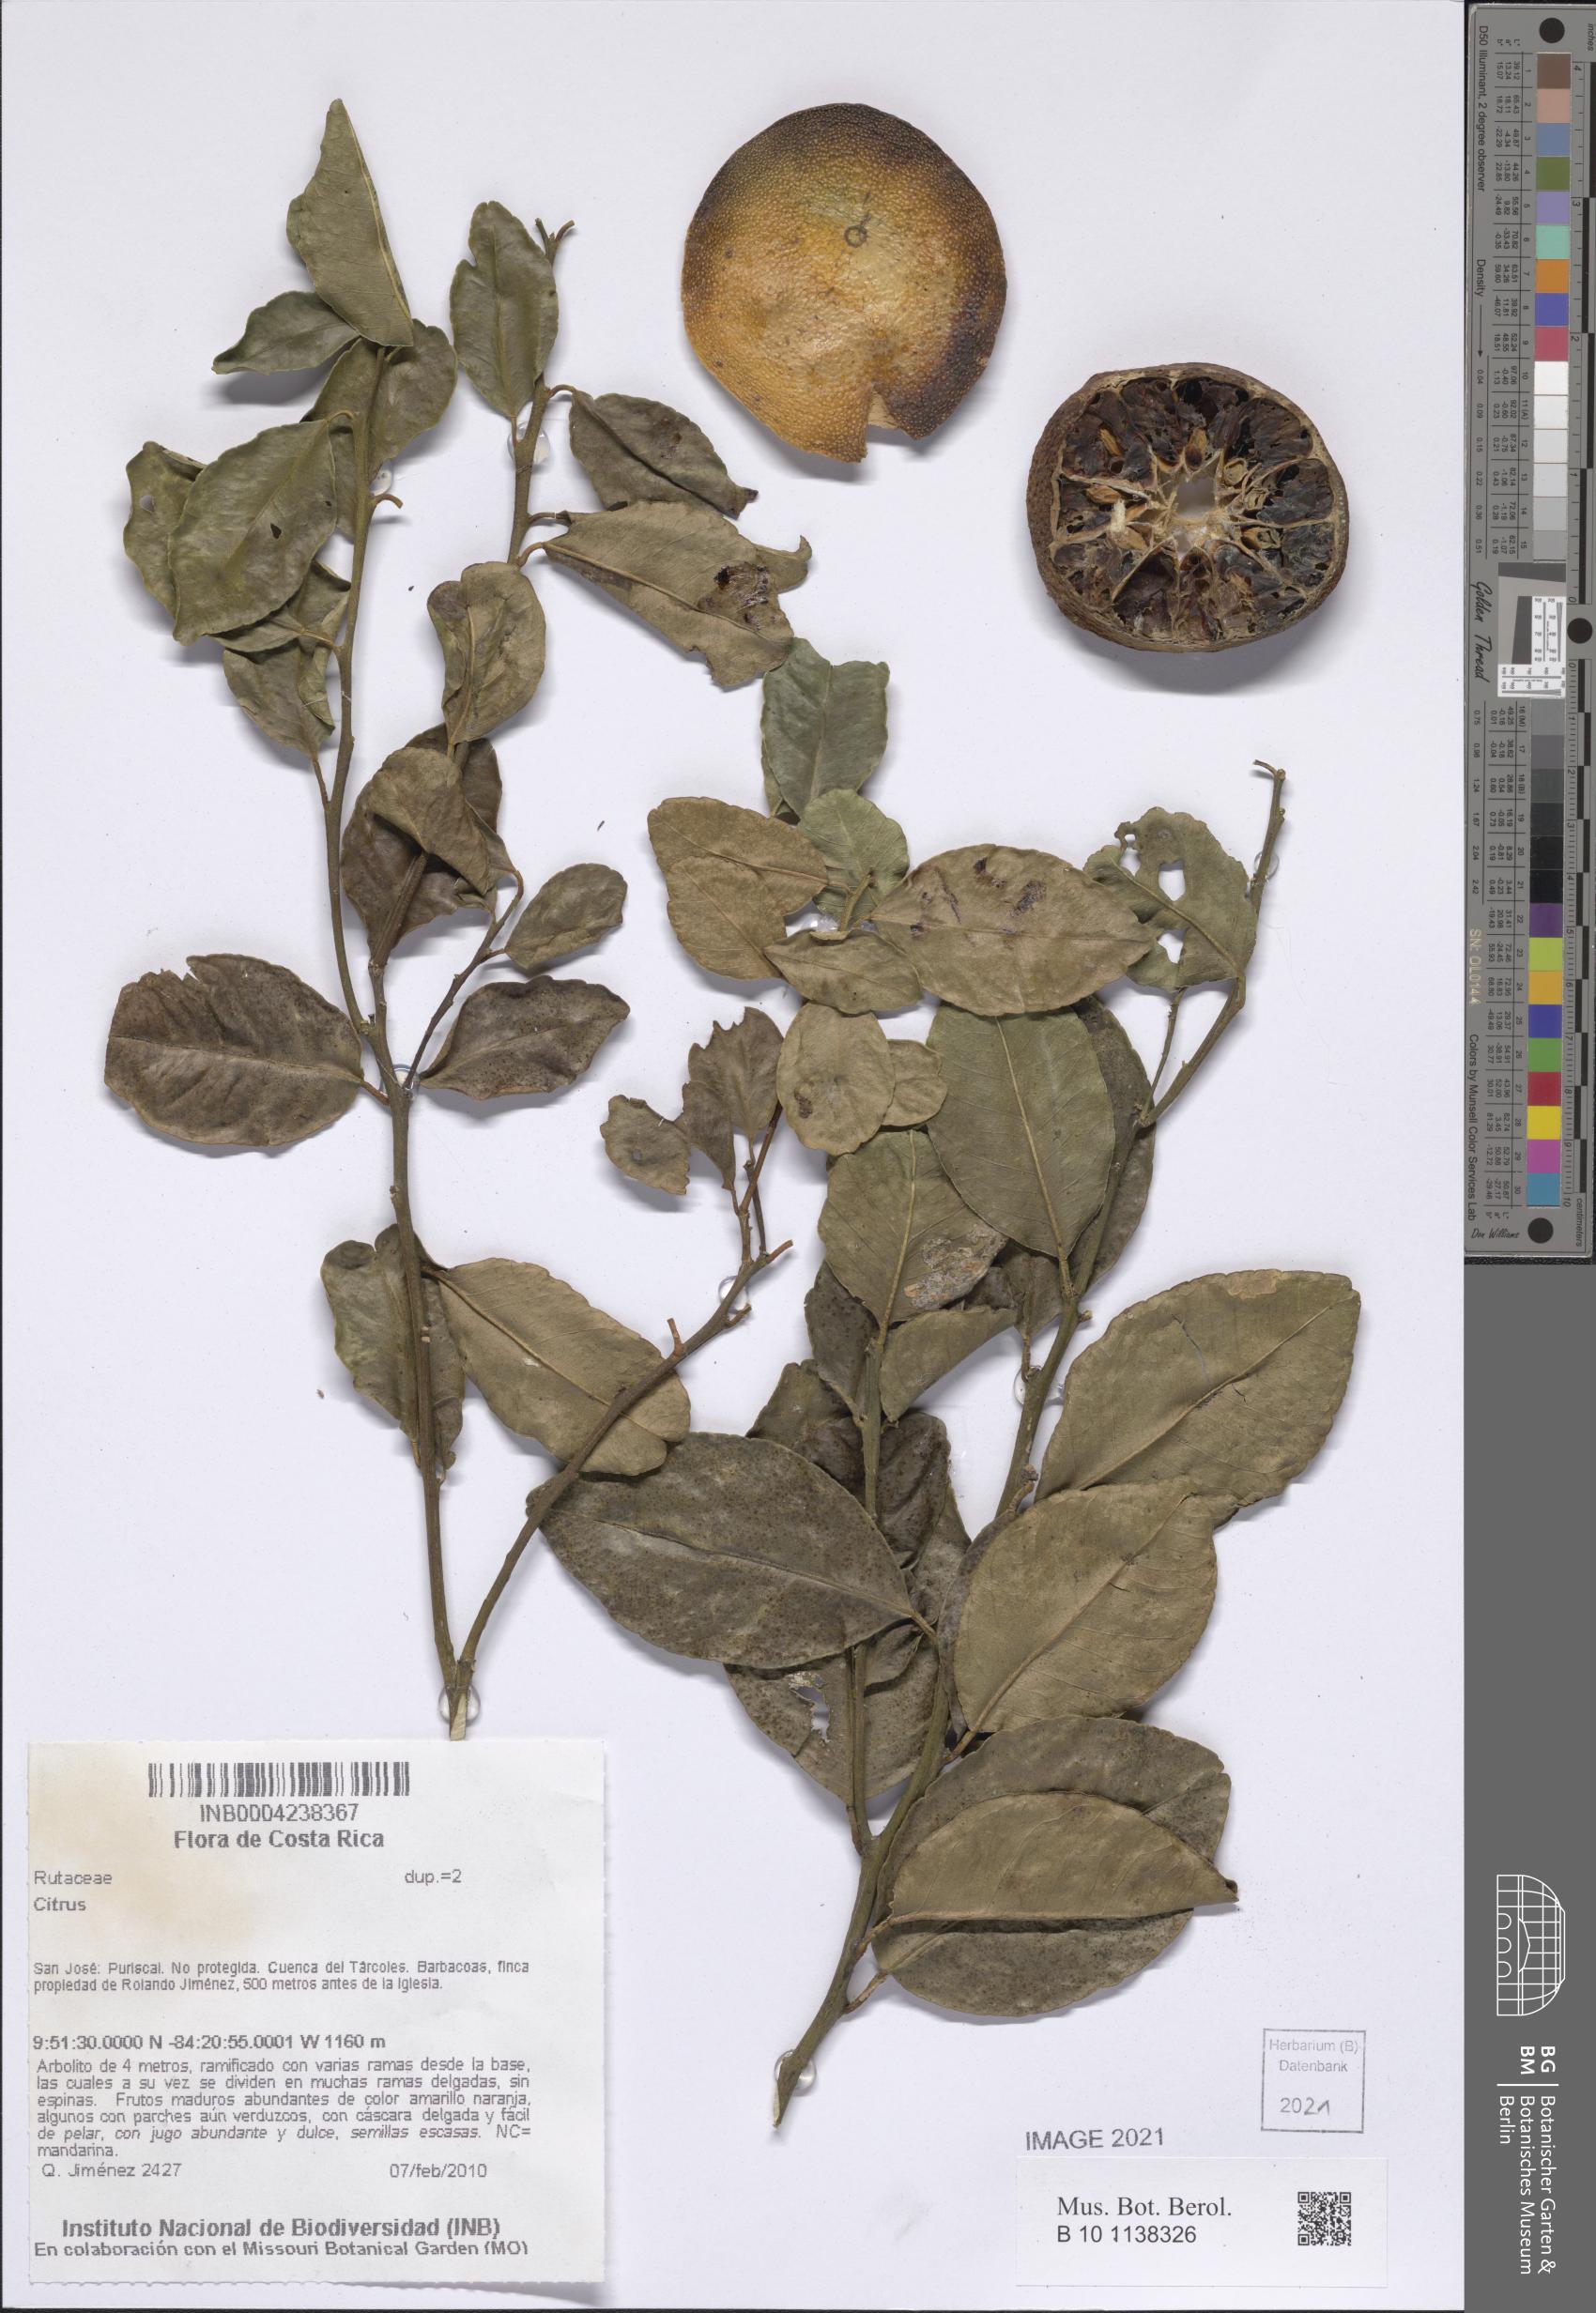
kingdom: Plantae
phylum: Tracheophyta
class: Magnoliopsida
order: Sapindales
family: Rutaceae
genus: Citrus
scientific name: Citrus
